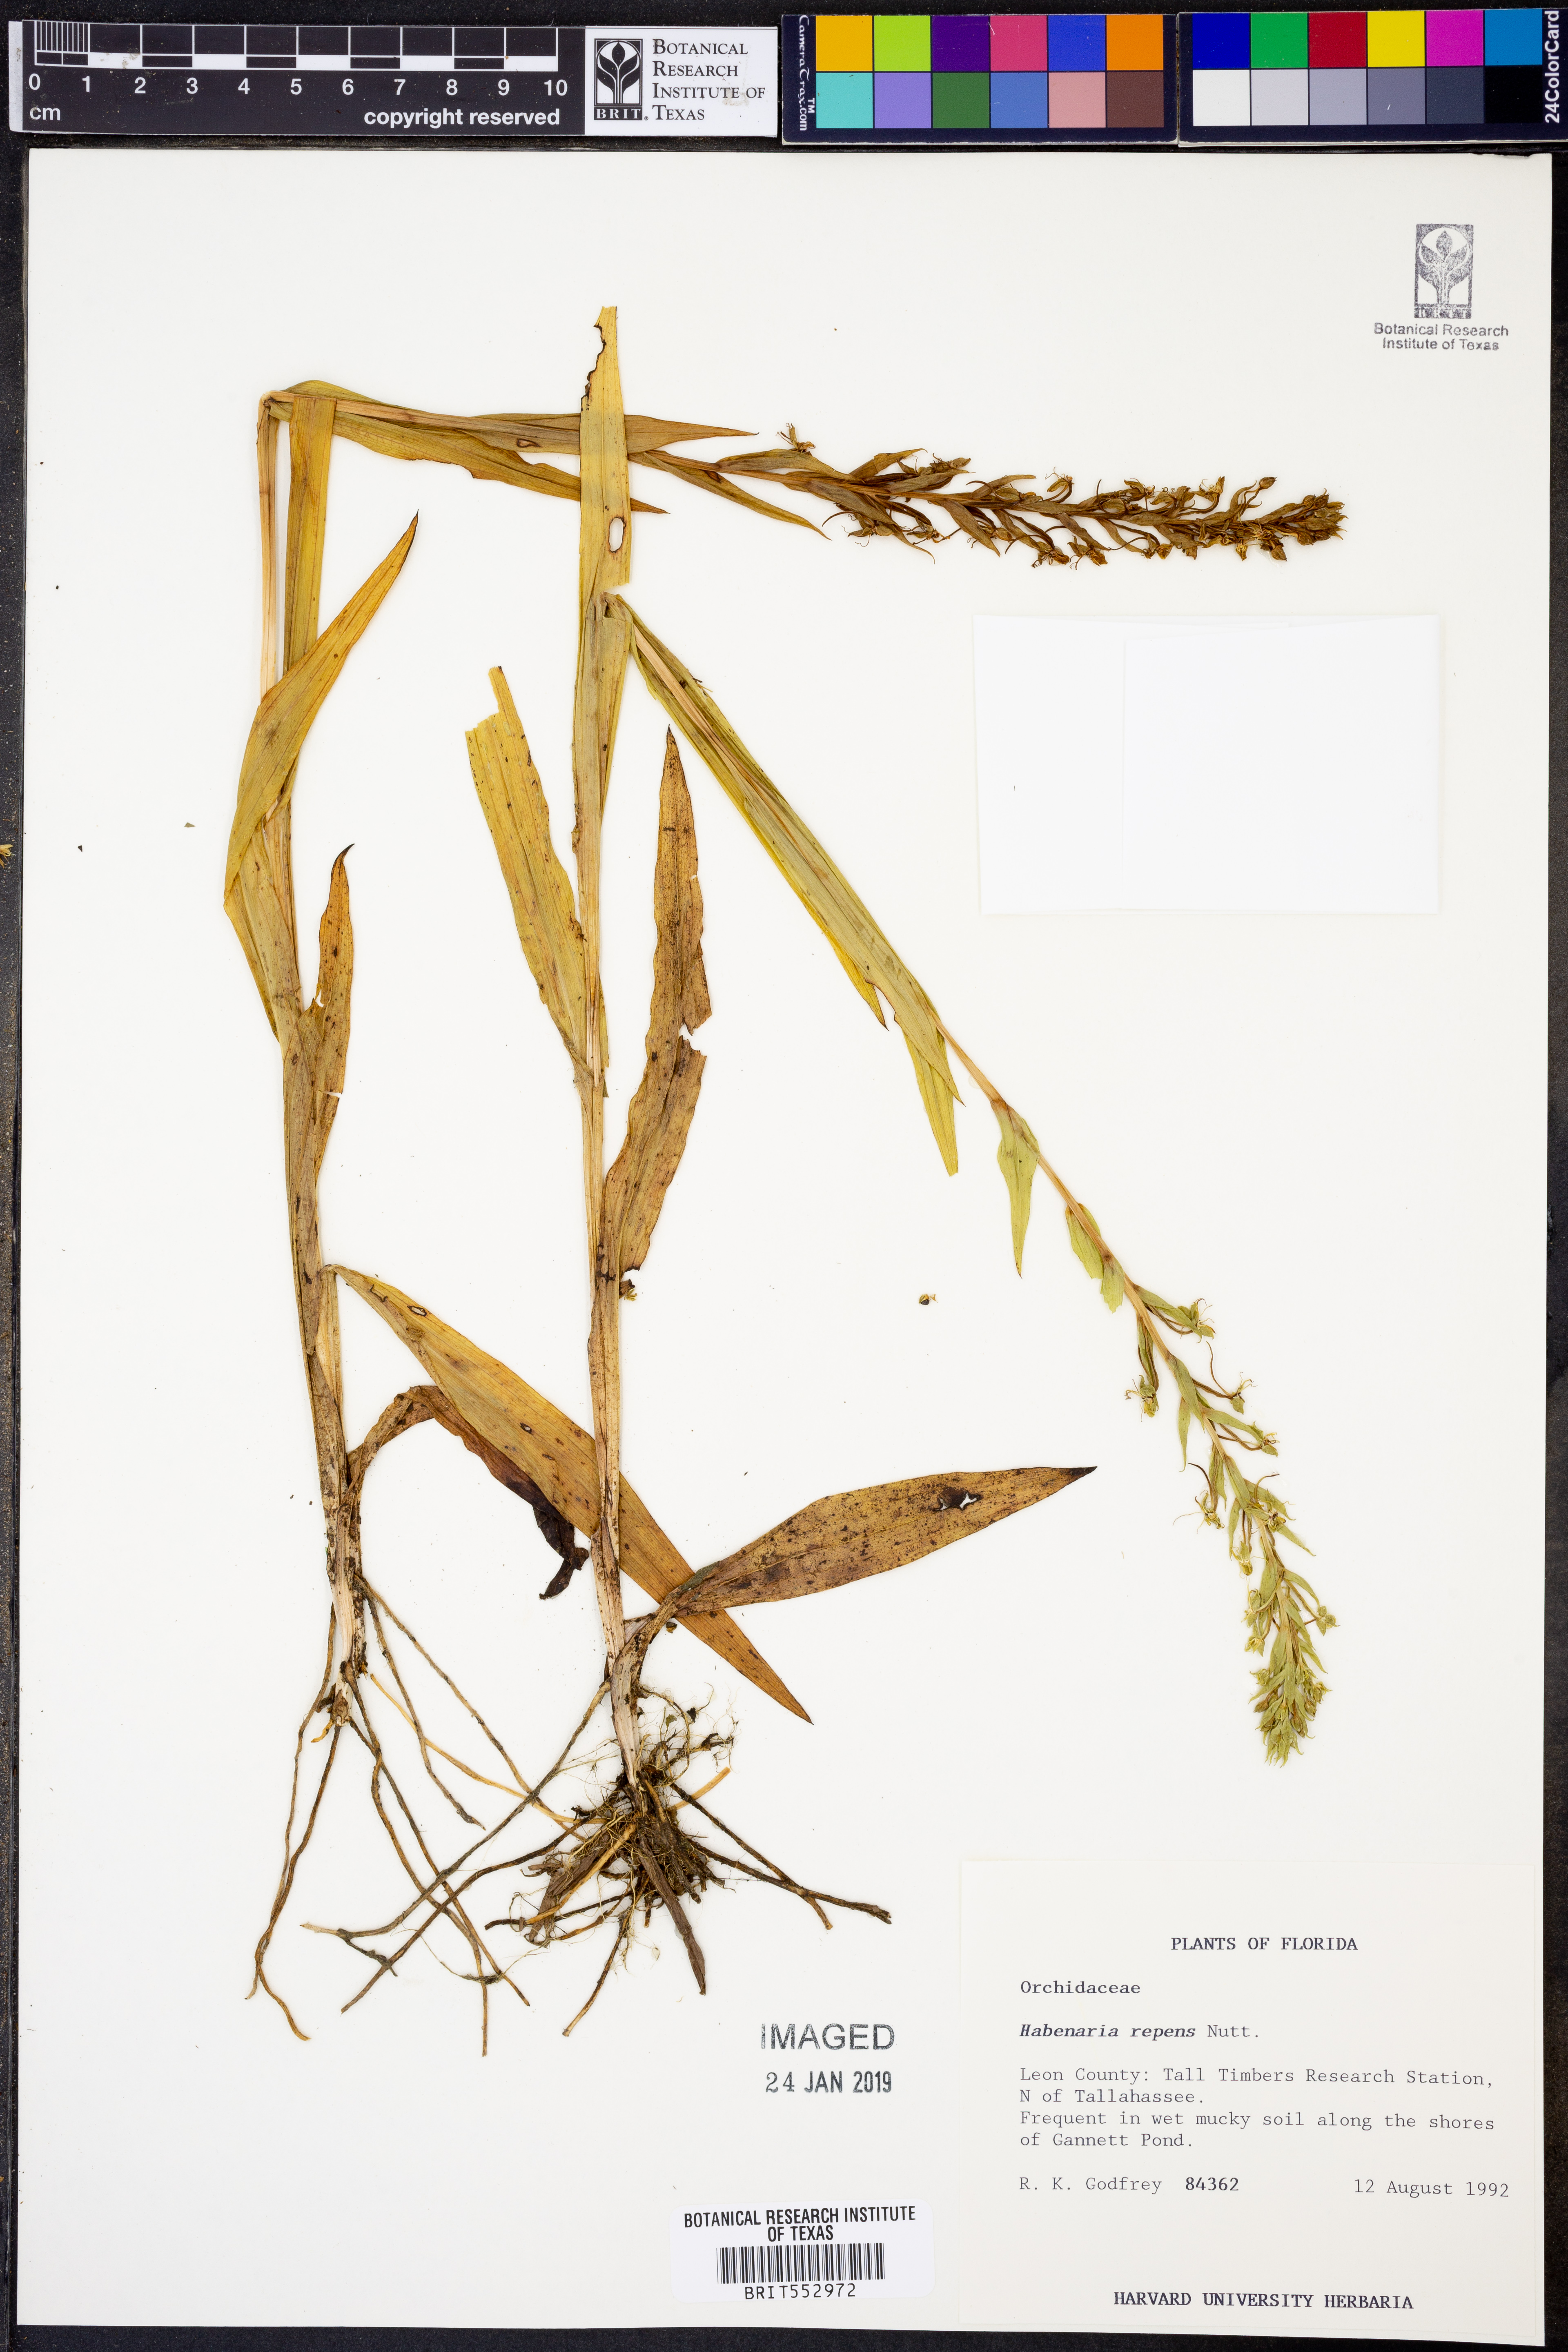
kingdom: Plantae
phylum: Tracheophyta
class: Liliopsida
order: Asparagales
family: Orchidaceae
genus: Habenaria
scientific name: Habenaria repens
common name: Water orchid
